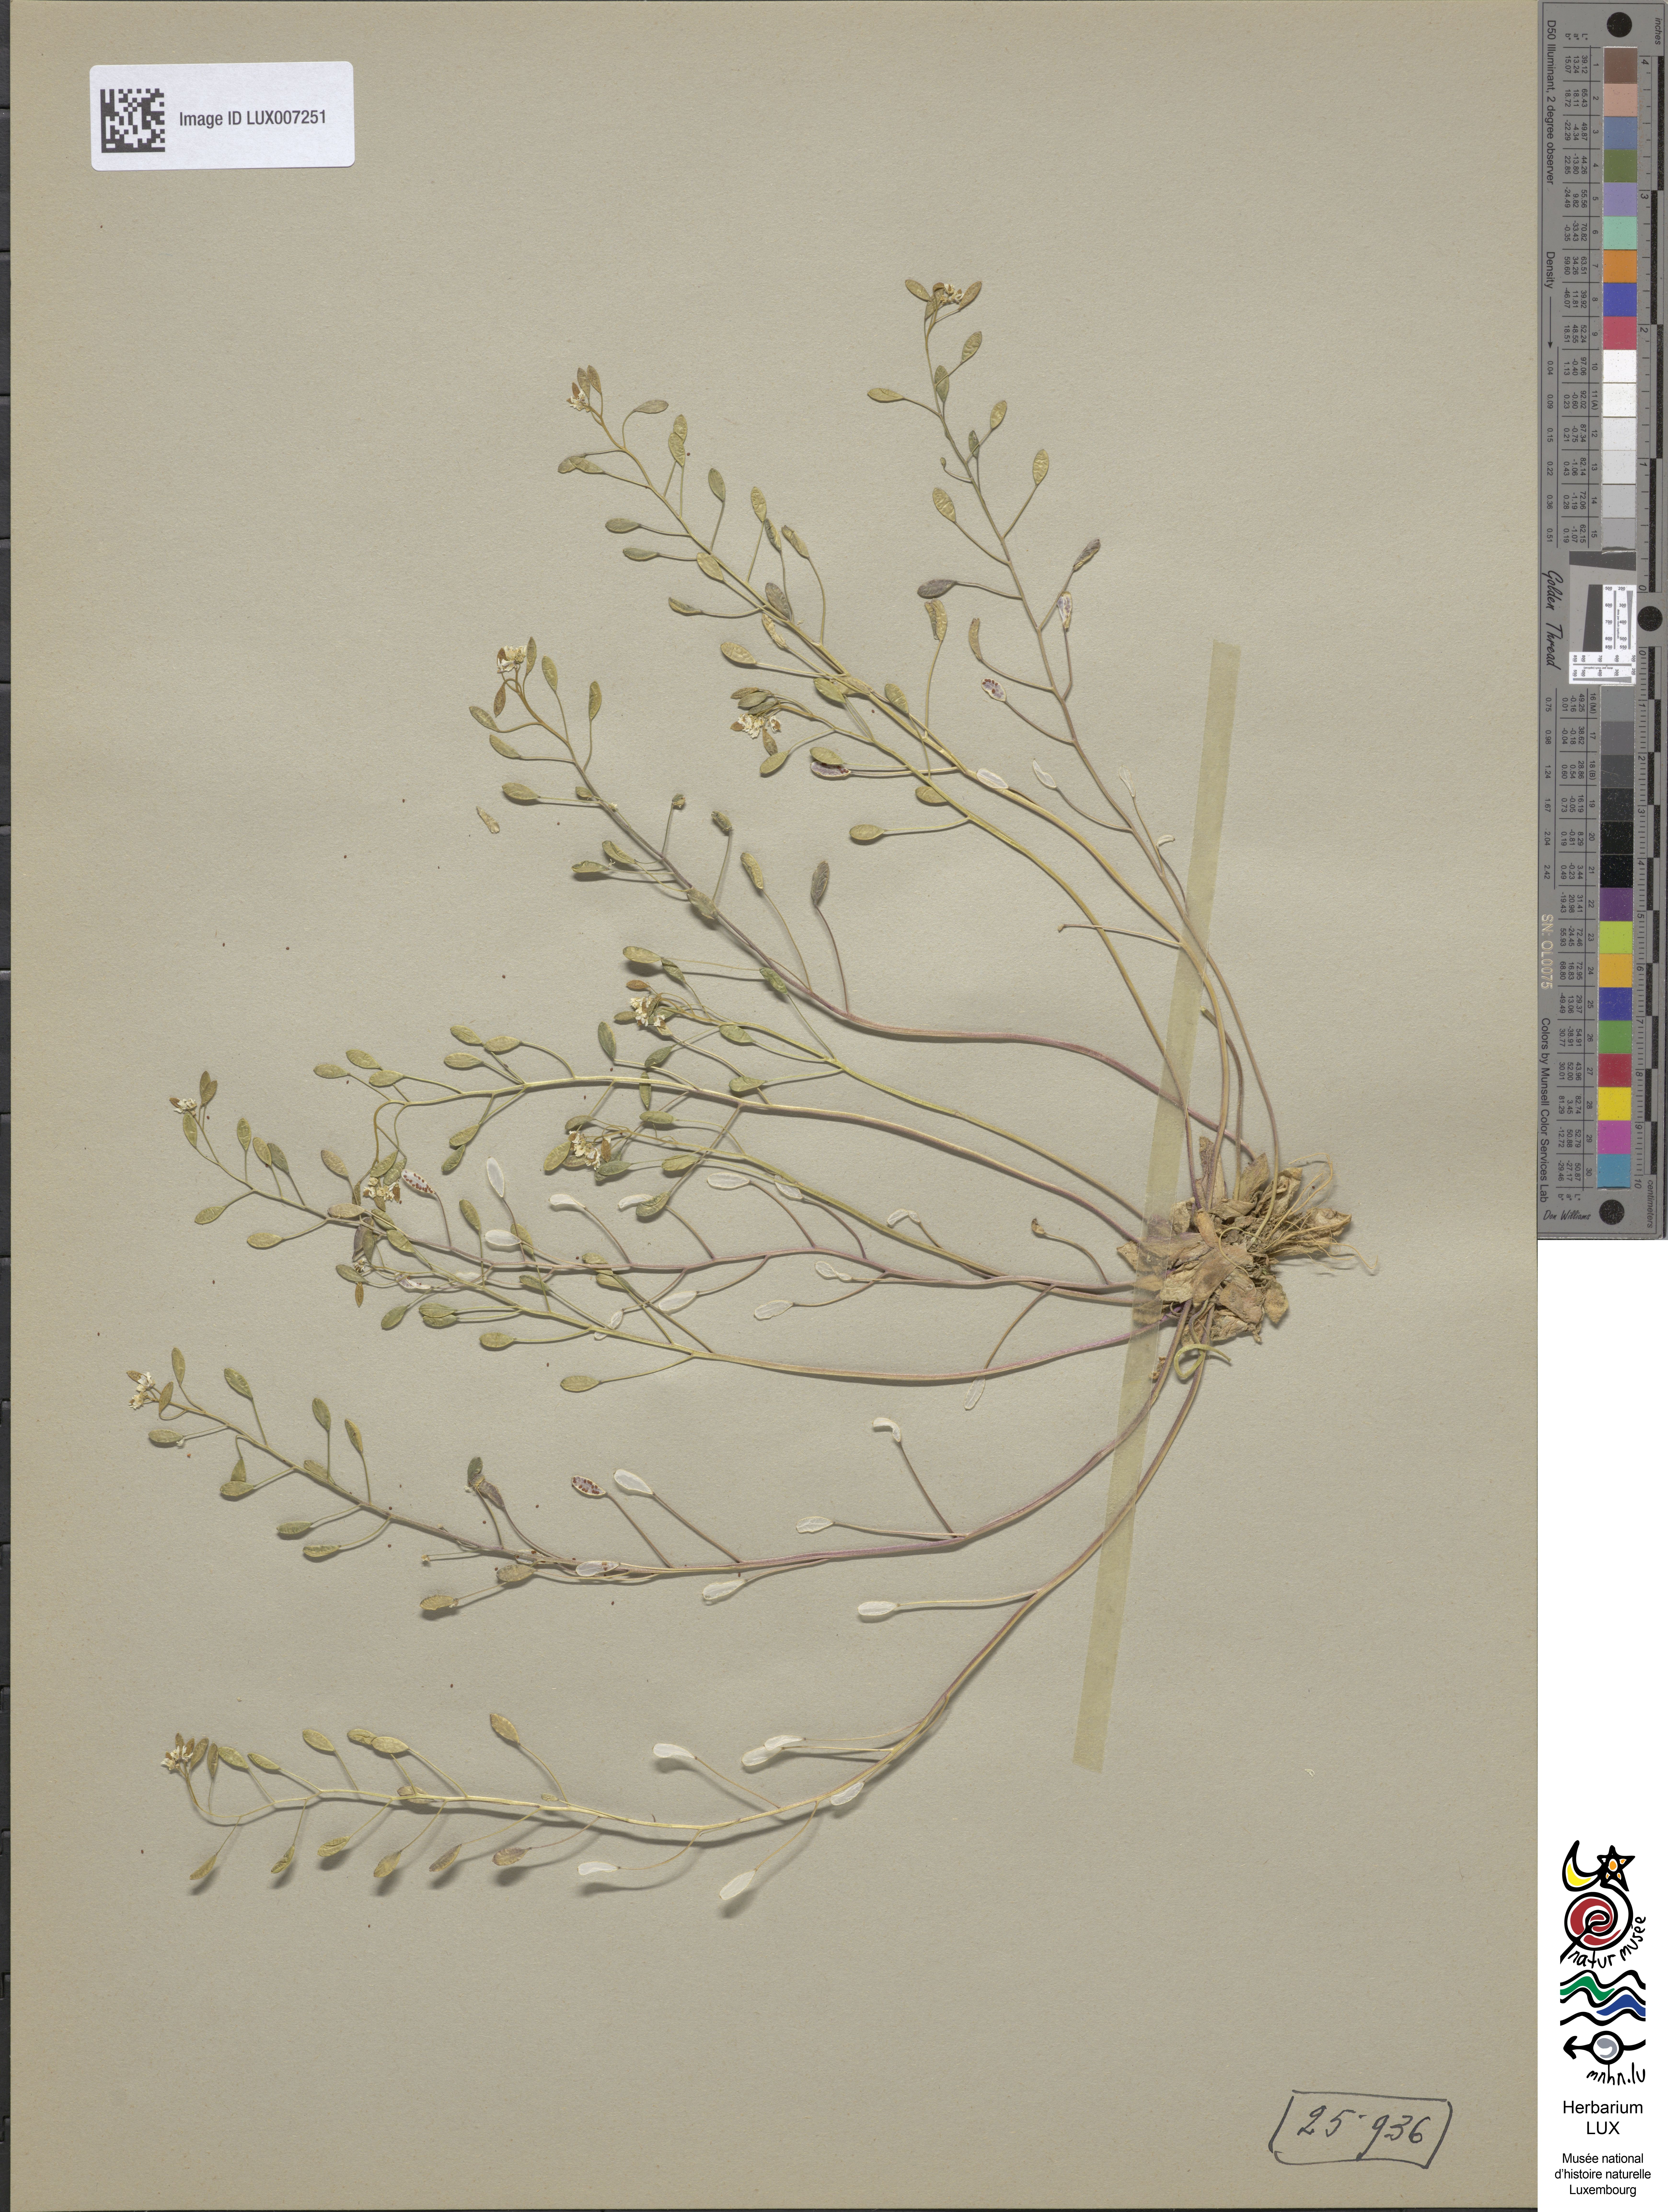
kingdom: Plantae
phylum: Tracheophyta
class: Magnoliopsida
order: Brassicales
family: Brassicaceae
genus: Draba
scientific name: Draba verna
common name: Spring draba
